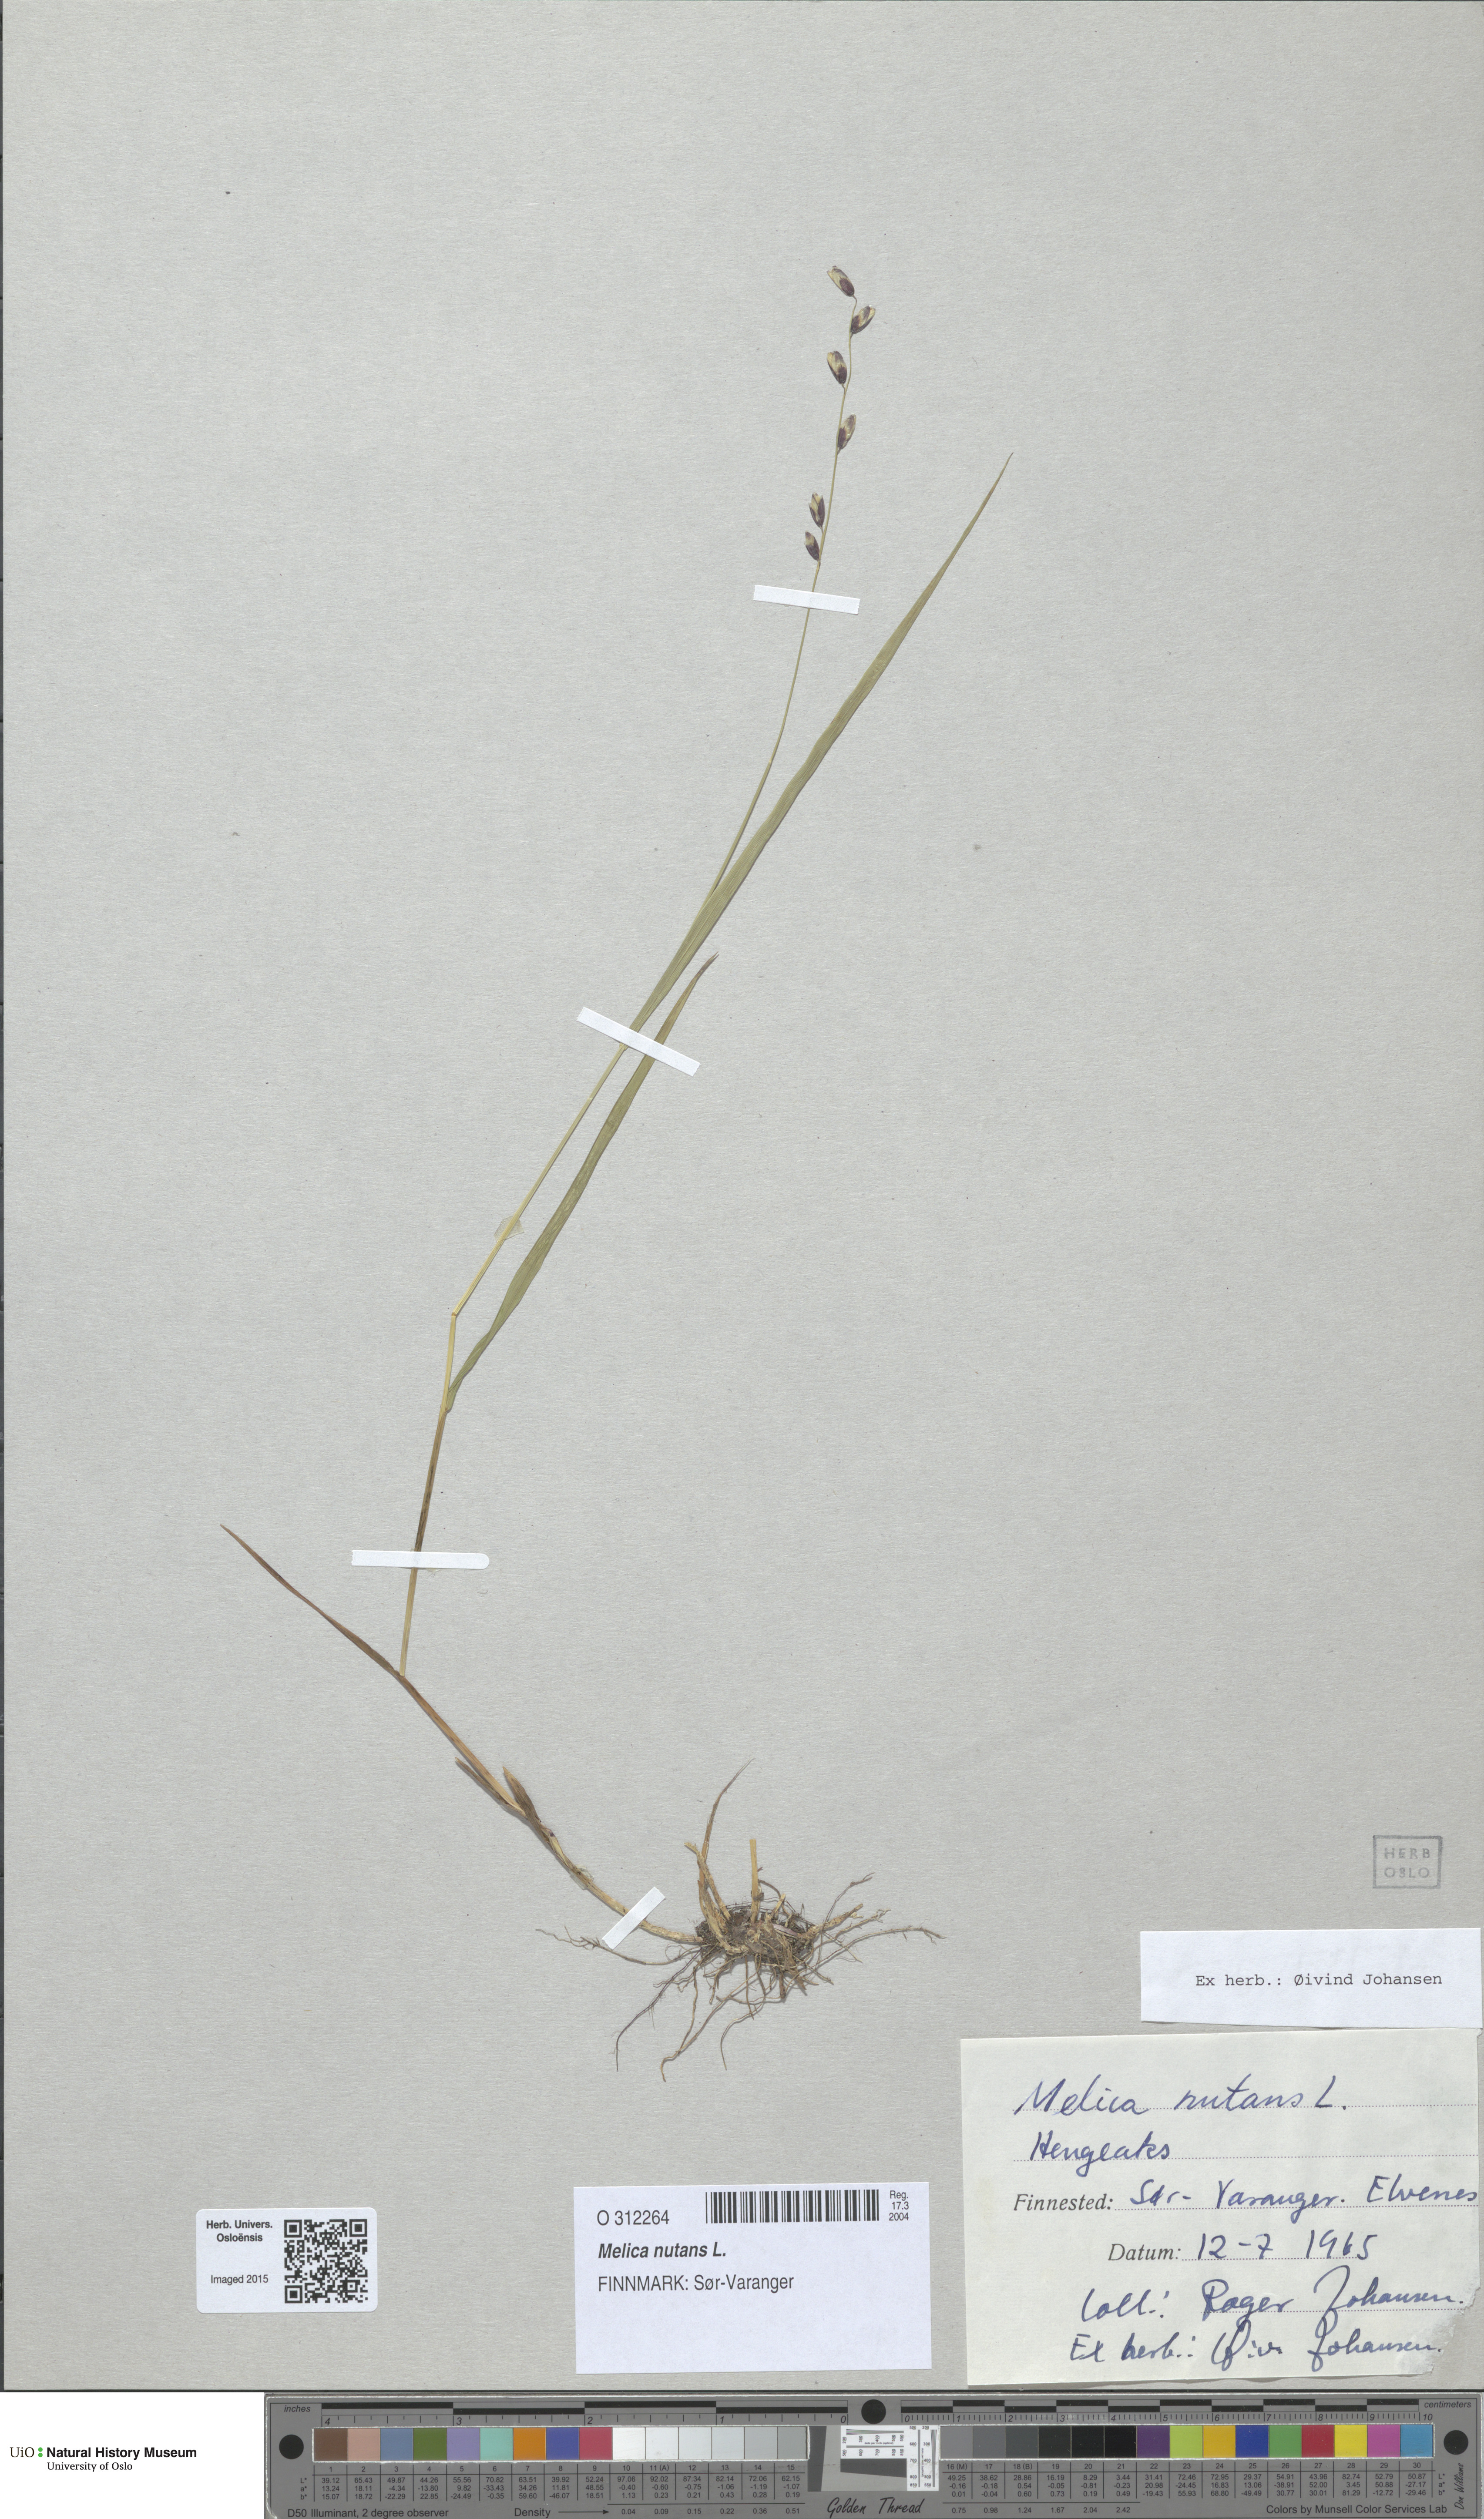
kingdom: Plantae
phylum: Tracheophyta
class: Liliopsida
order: Poales
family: Poaceae
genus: Melica
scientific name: Melica nutans
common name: Mountain melick
